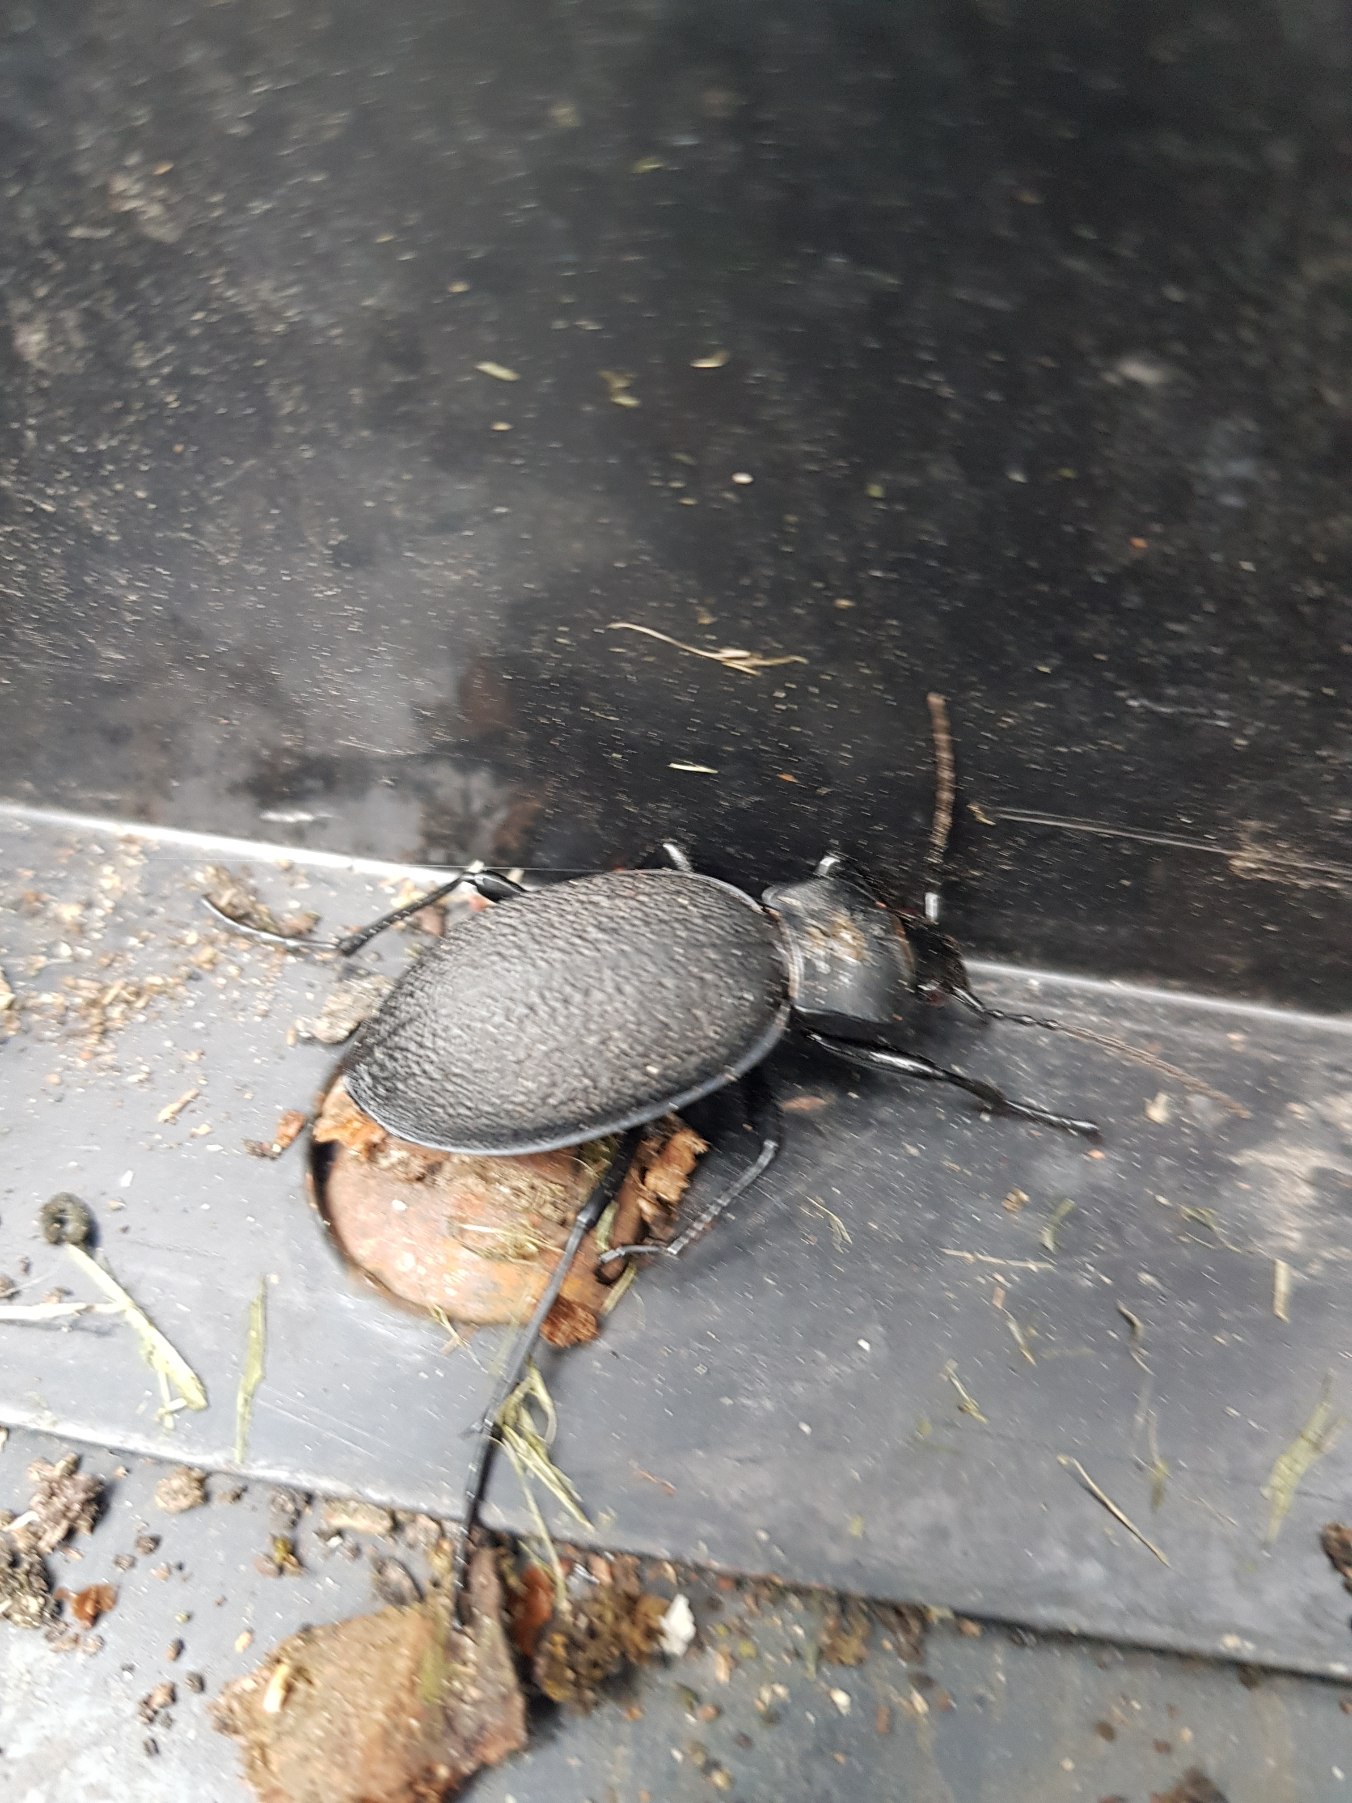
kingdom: Animalia
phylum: Arthropoda
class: Insecta
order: Coleoptera
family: Carabidae
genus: Carabus
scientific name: Carabus coriaceus
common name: Læderløber
